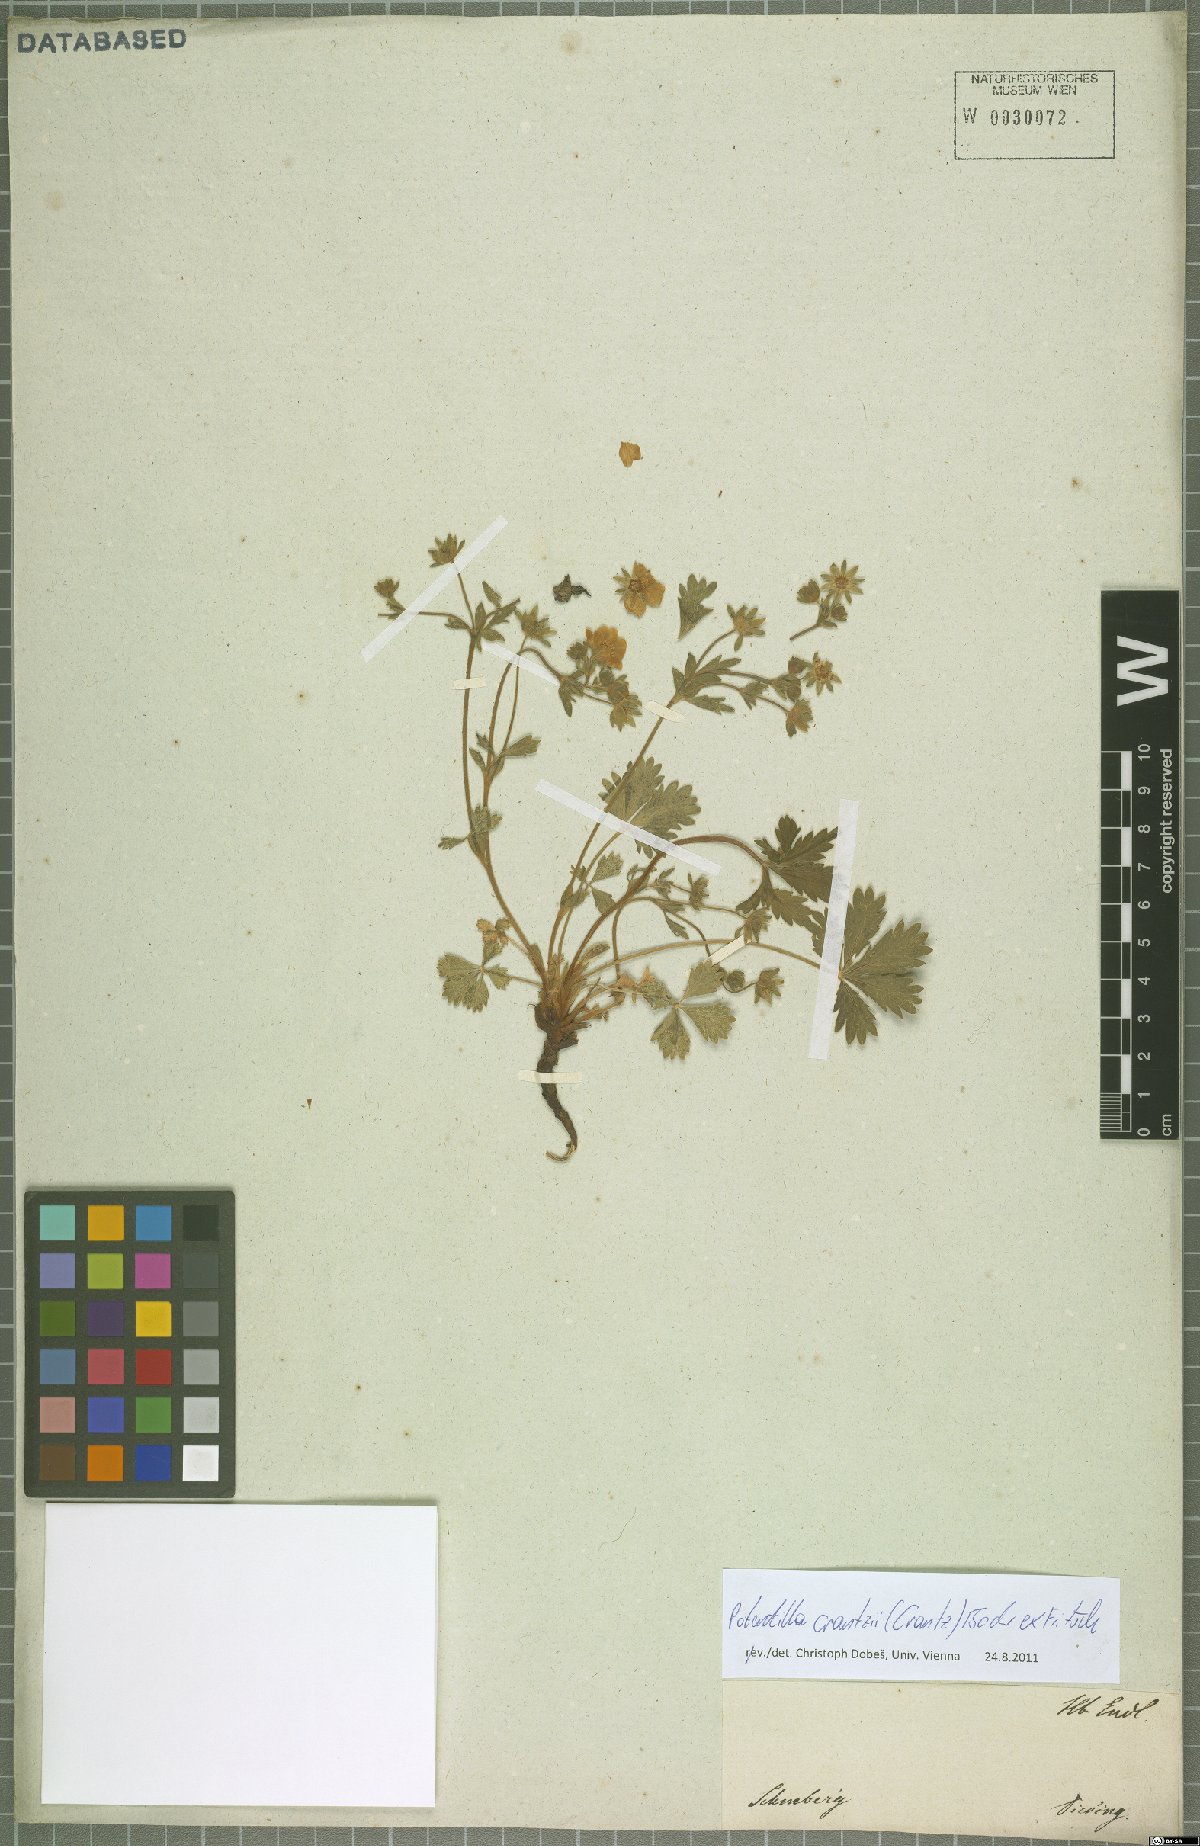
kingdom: Plantae
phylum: Tracheophyta
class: Magnoliopsida
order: Rosales
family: Rosaceae
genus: Potentilla
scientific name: Potentilla crantzii
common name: Alpine cinquefoil
